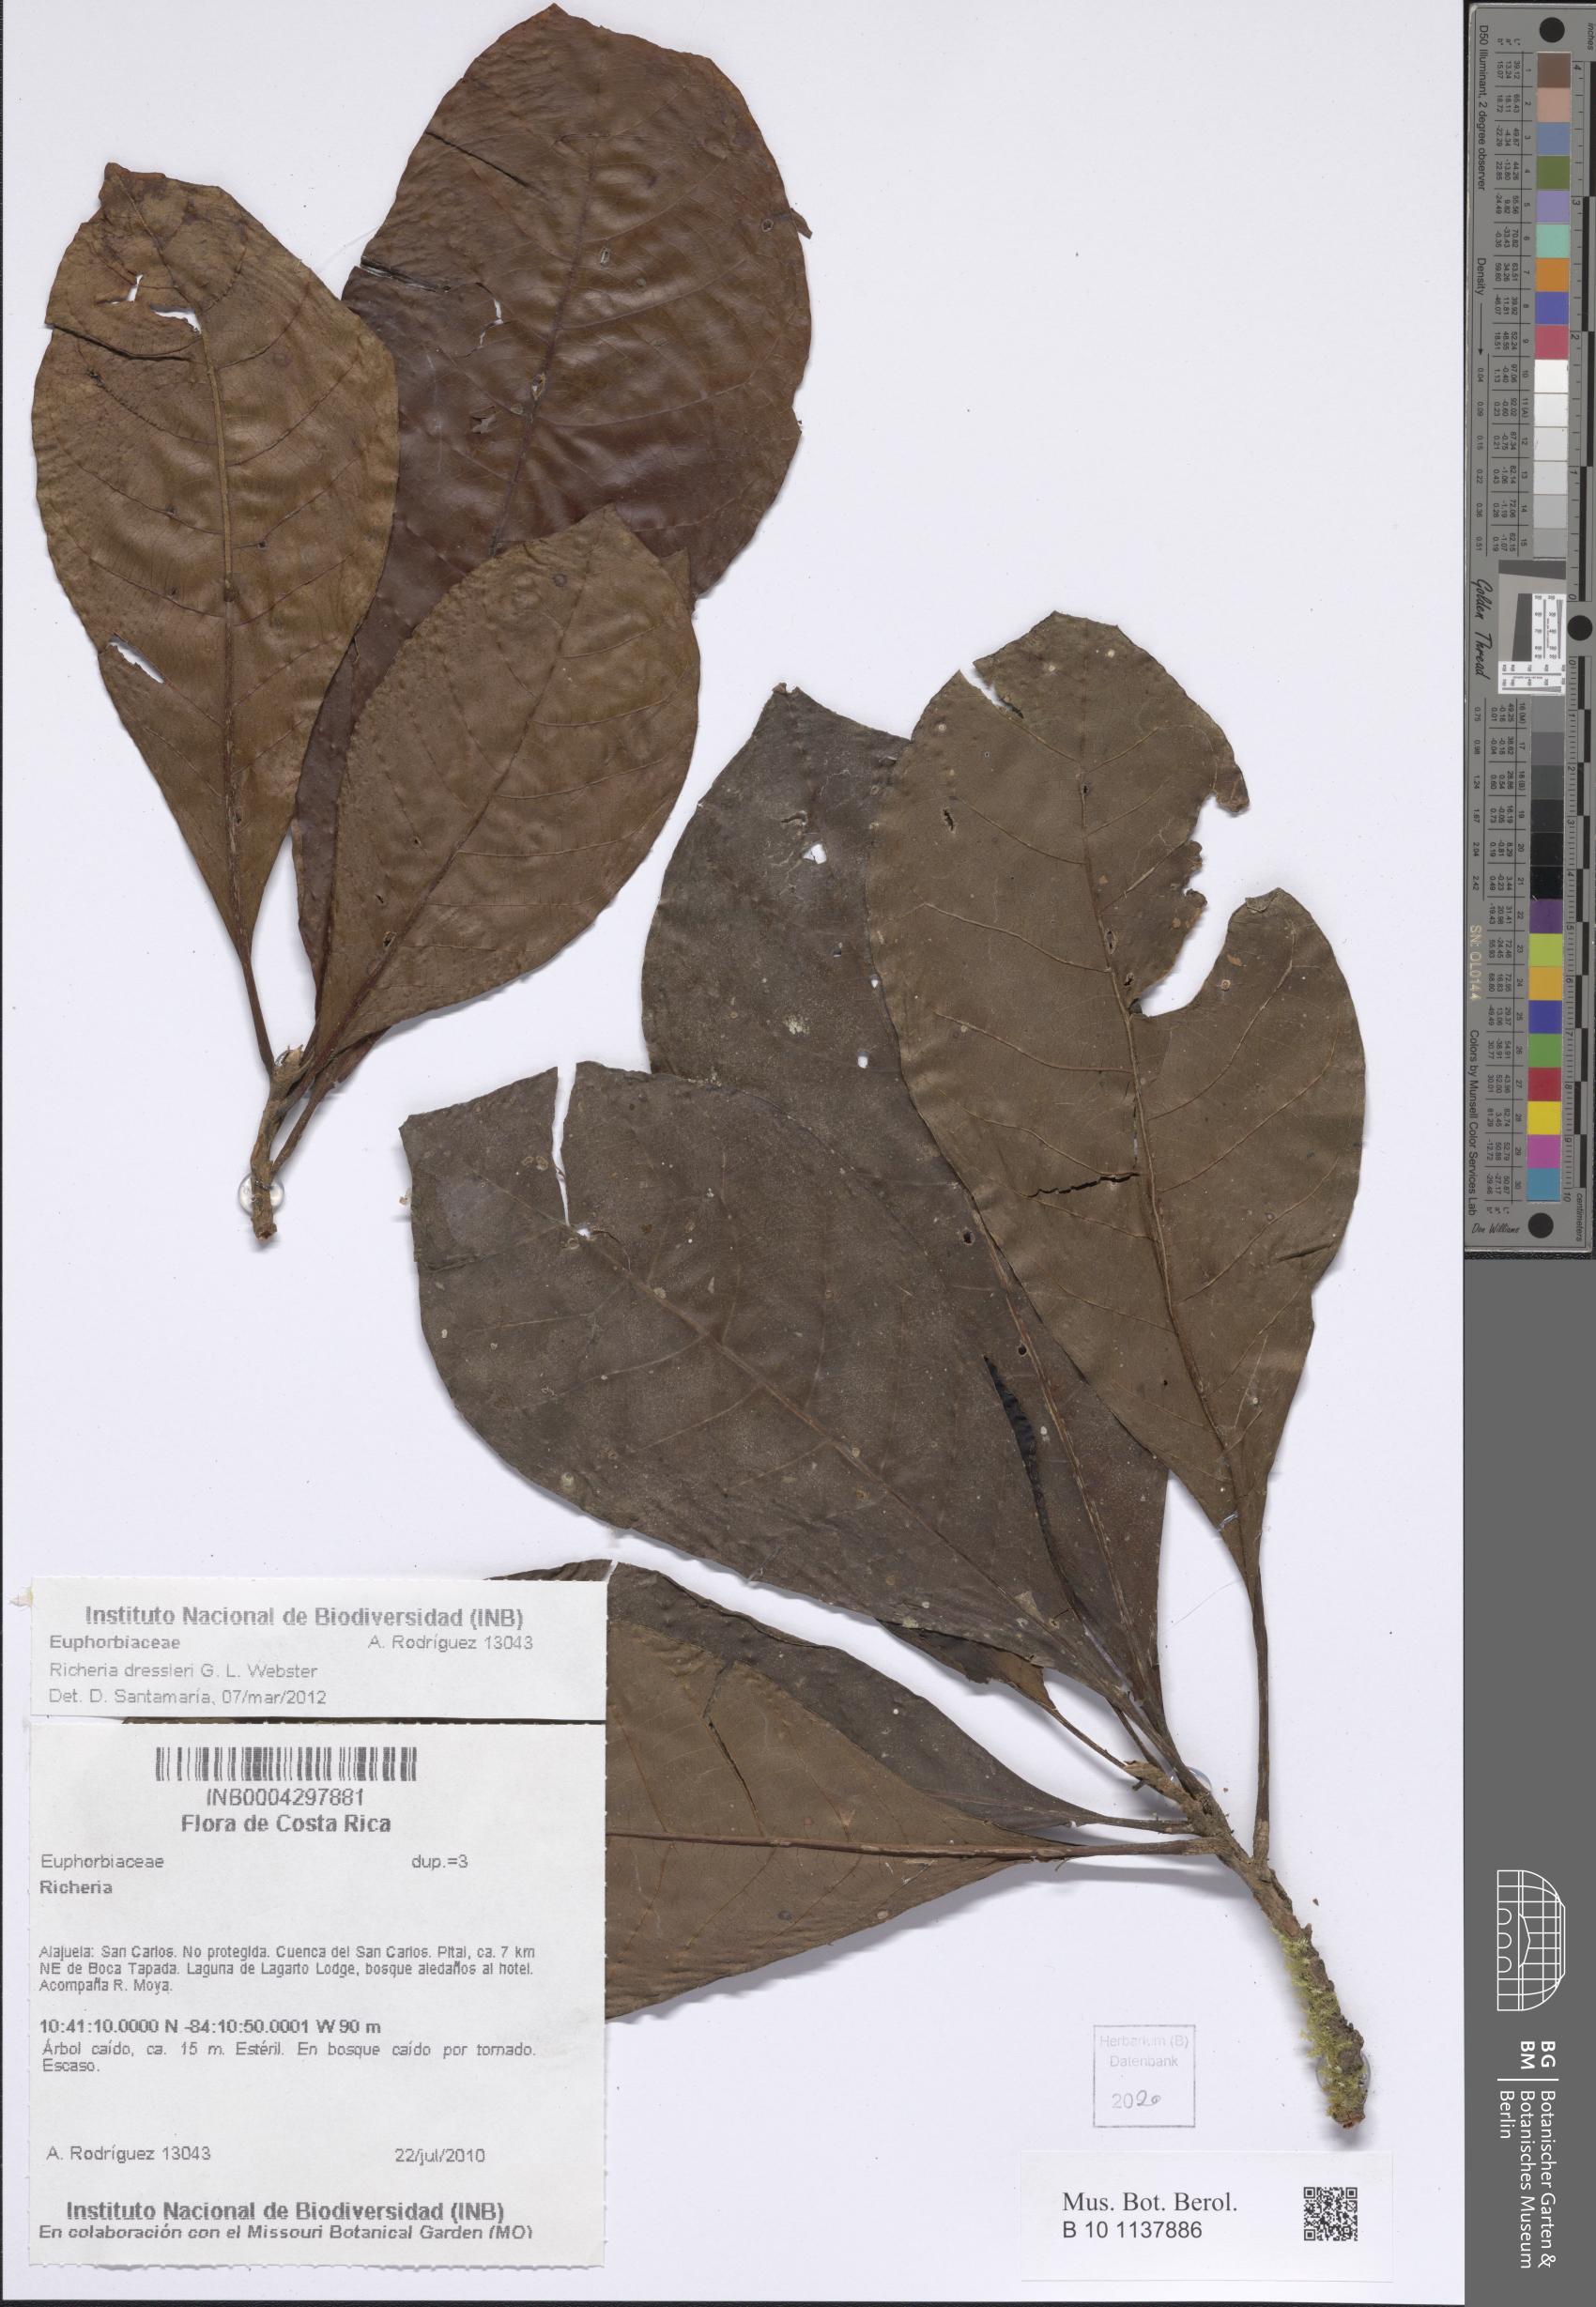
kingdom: Plantae
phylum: Tracheophyta
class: Magnoliopsida
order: Malpighiales
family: Phyllanthaceae
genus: Richeria
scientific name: Richeria dressleri
